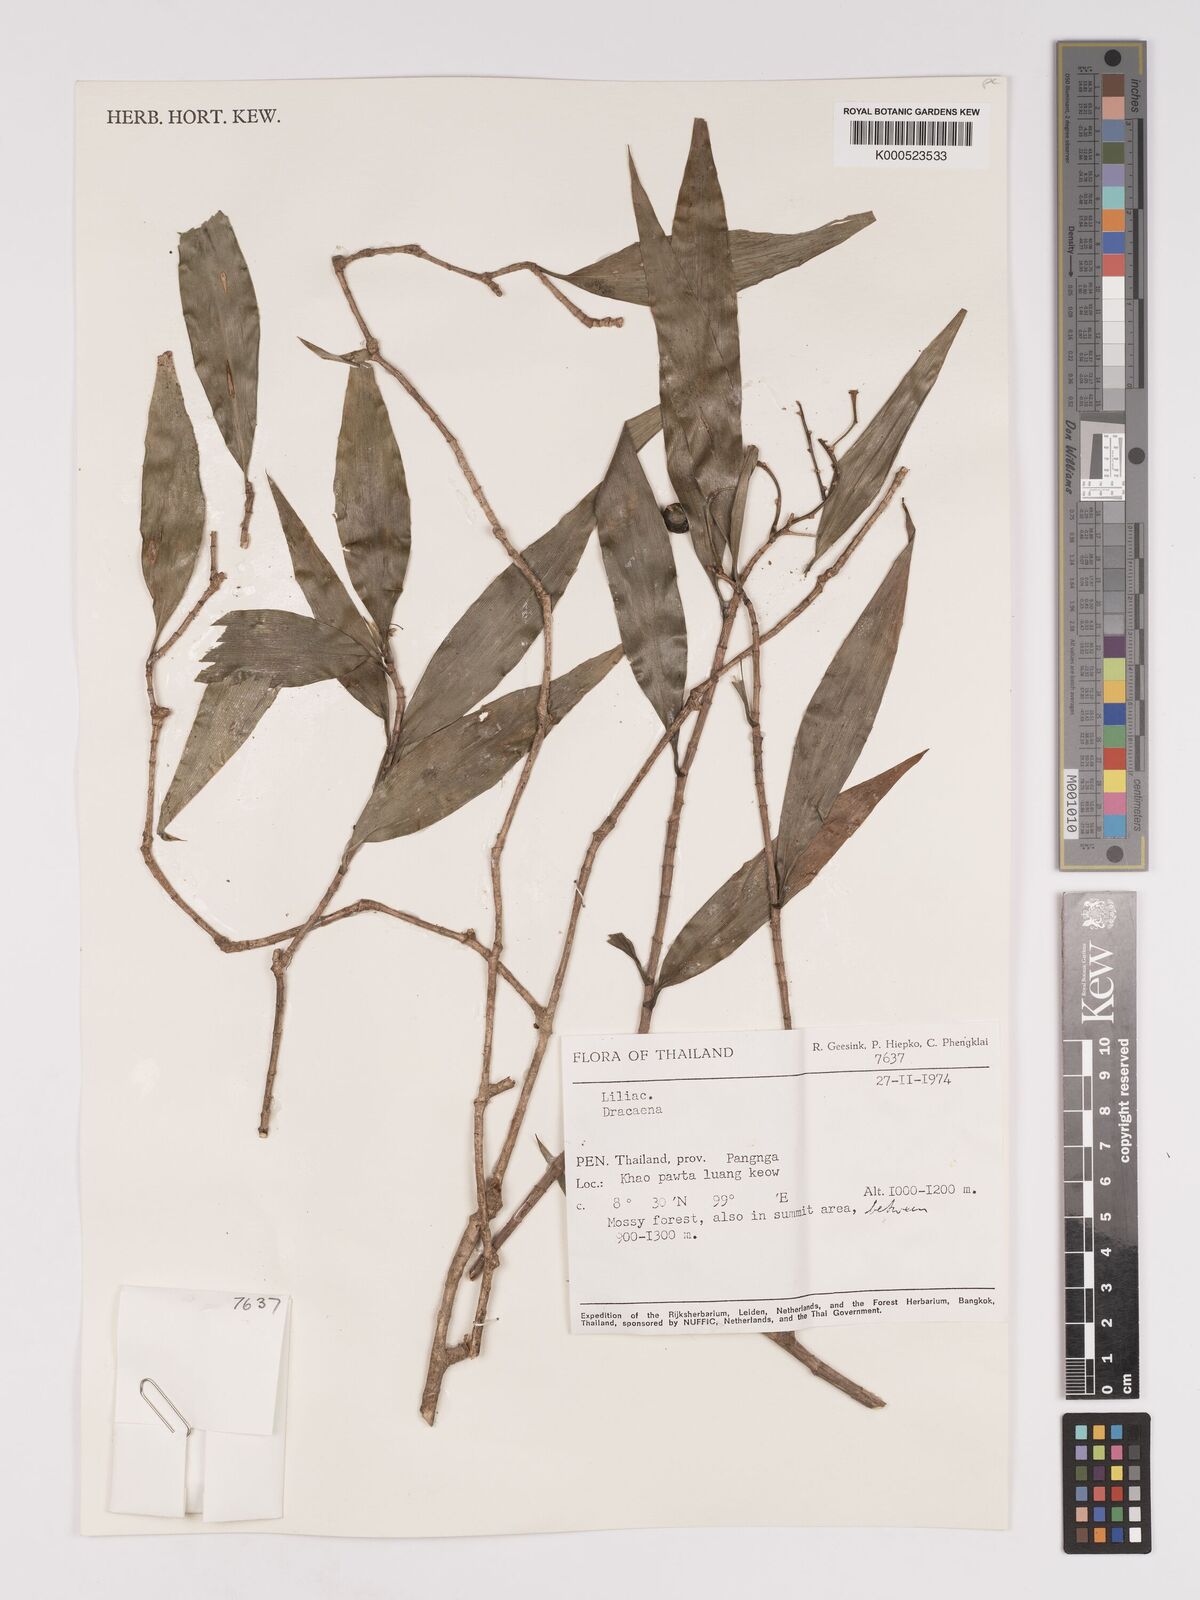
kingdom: Plantae
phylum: Tracheophyta
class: Liliopsida
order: Asparagales
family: Asparagaceae
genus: Dracaena
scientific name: Dracaena
